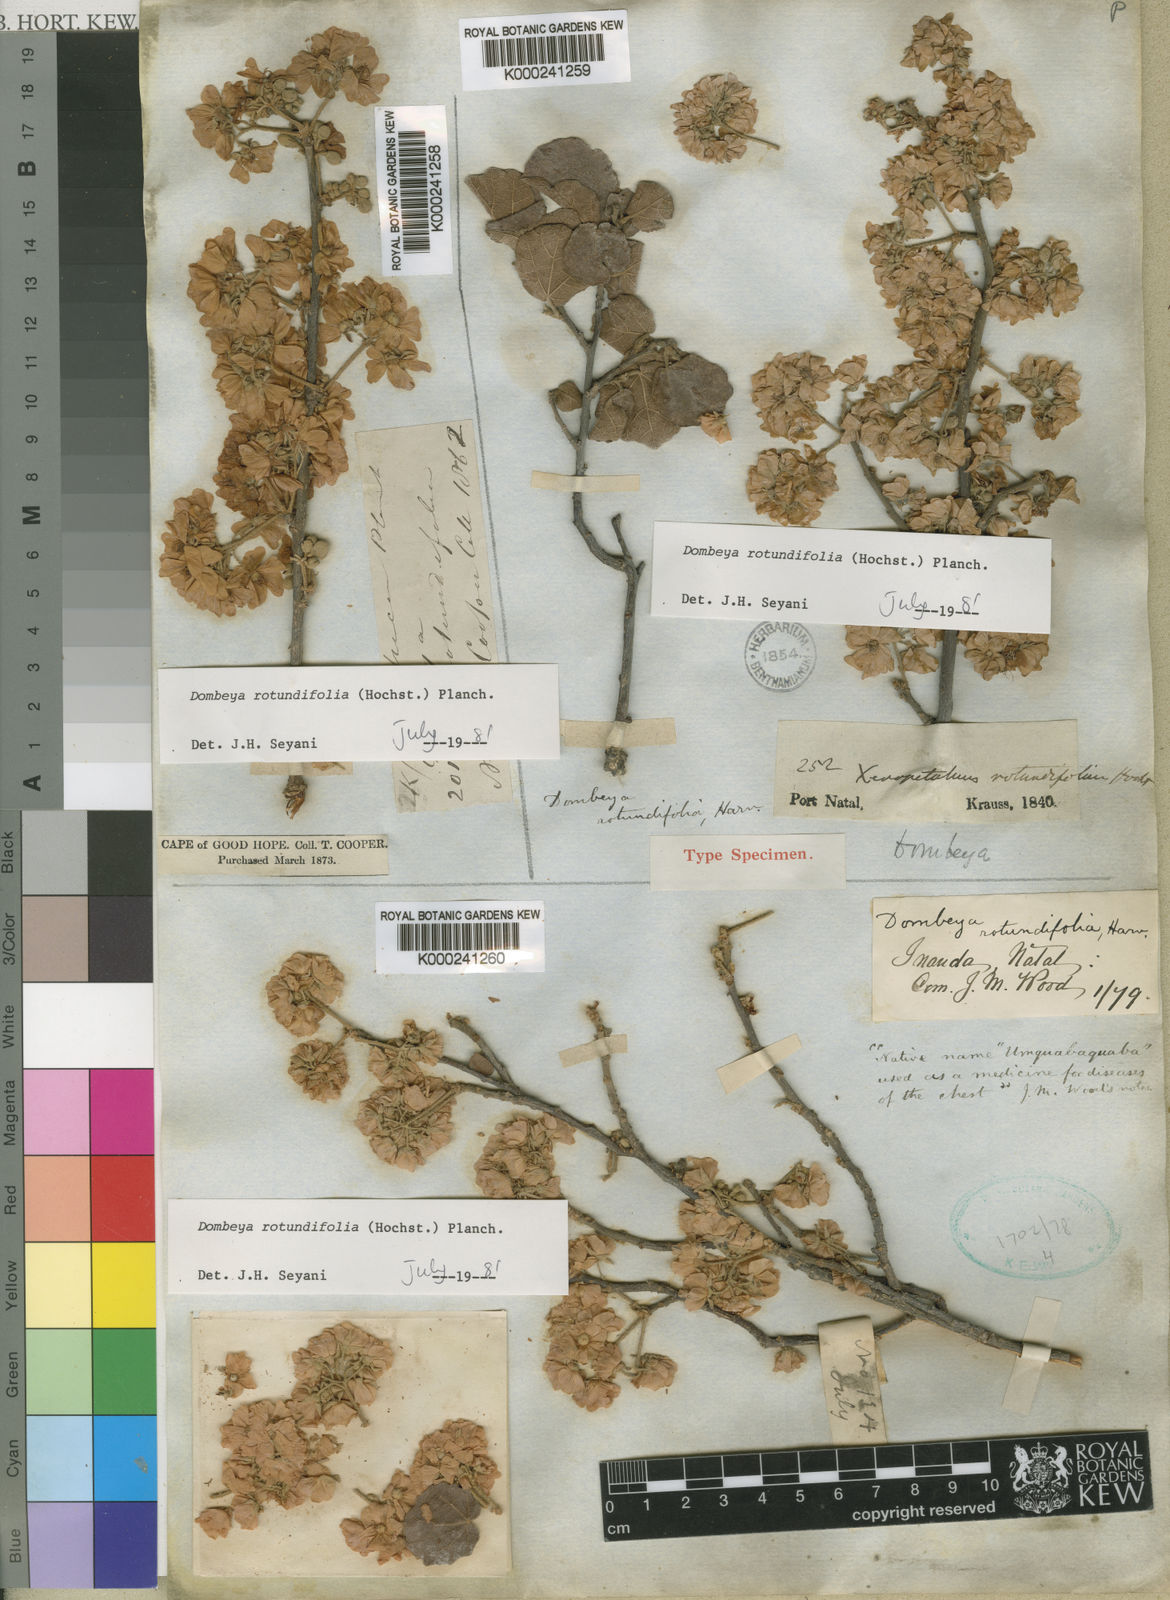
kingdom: Plantae
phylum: Tracheophyta
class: Magnoliopsida
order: Malvales
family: Malvaceae
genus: Dombeya
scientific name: Dombeya rotundifolia
